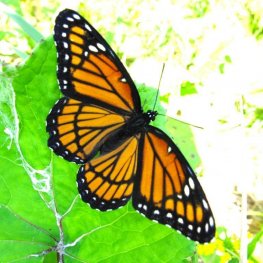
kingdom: Animalia
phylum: Arthropoda
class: Insecta
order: Lepidoptera
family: Nymphalidae
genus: Limenitis
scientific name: Limenitis archippus
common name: Viceroy
